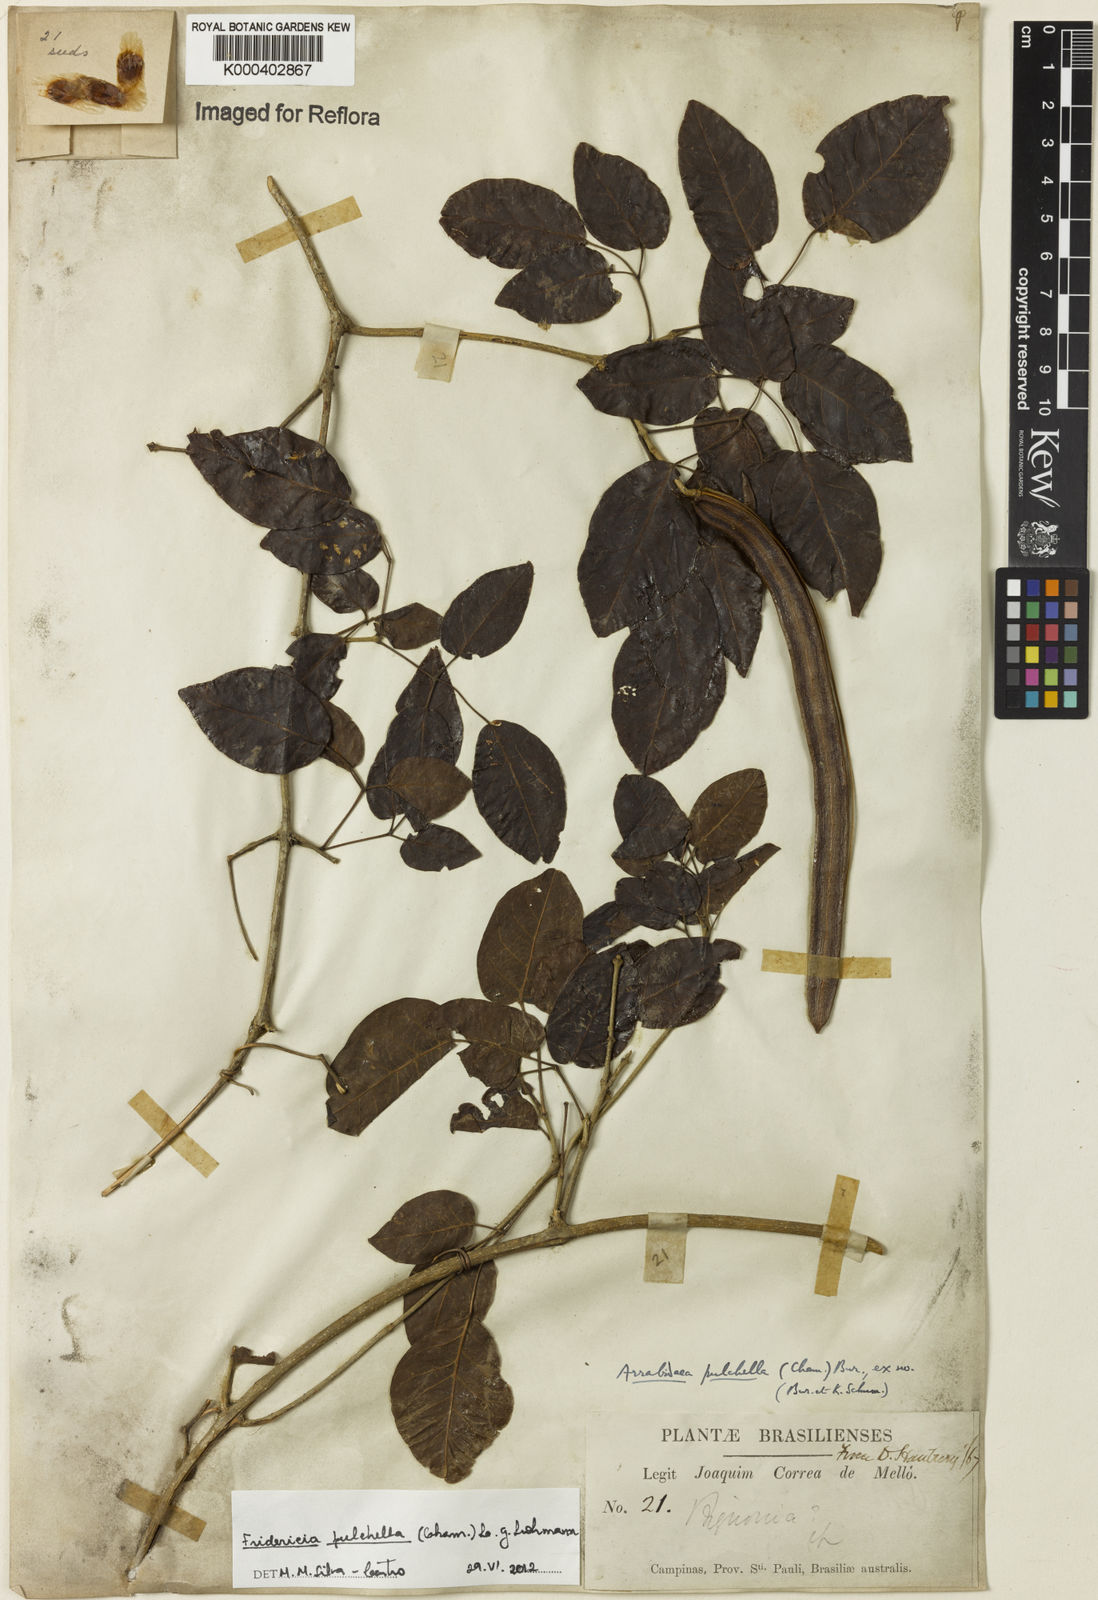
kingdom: Plantae
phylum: Tracheophyta
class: Magnoliopsida
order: Lamiales
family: Bignoniaceae
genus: Fridericia
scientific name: Fridericia
